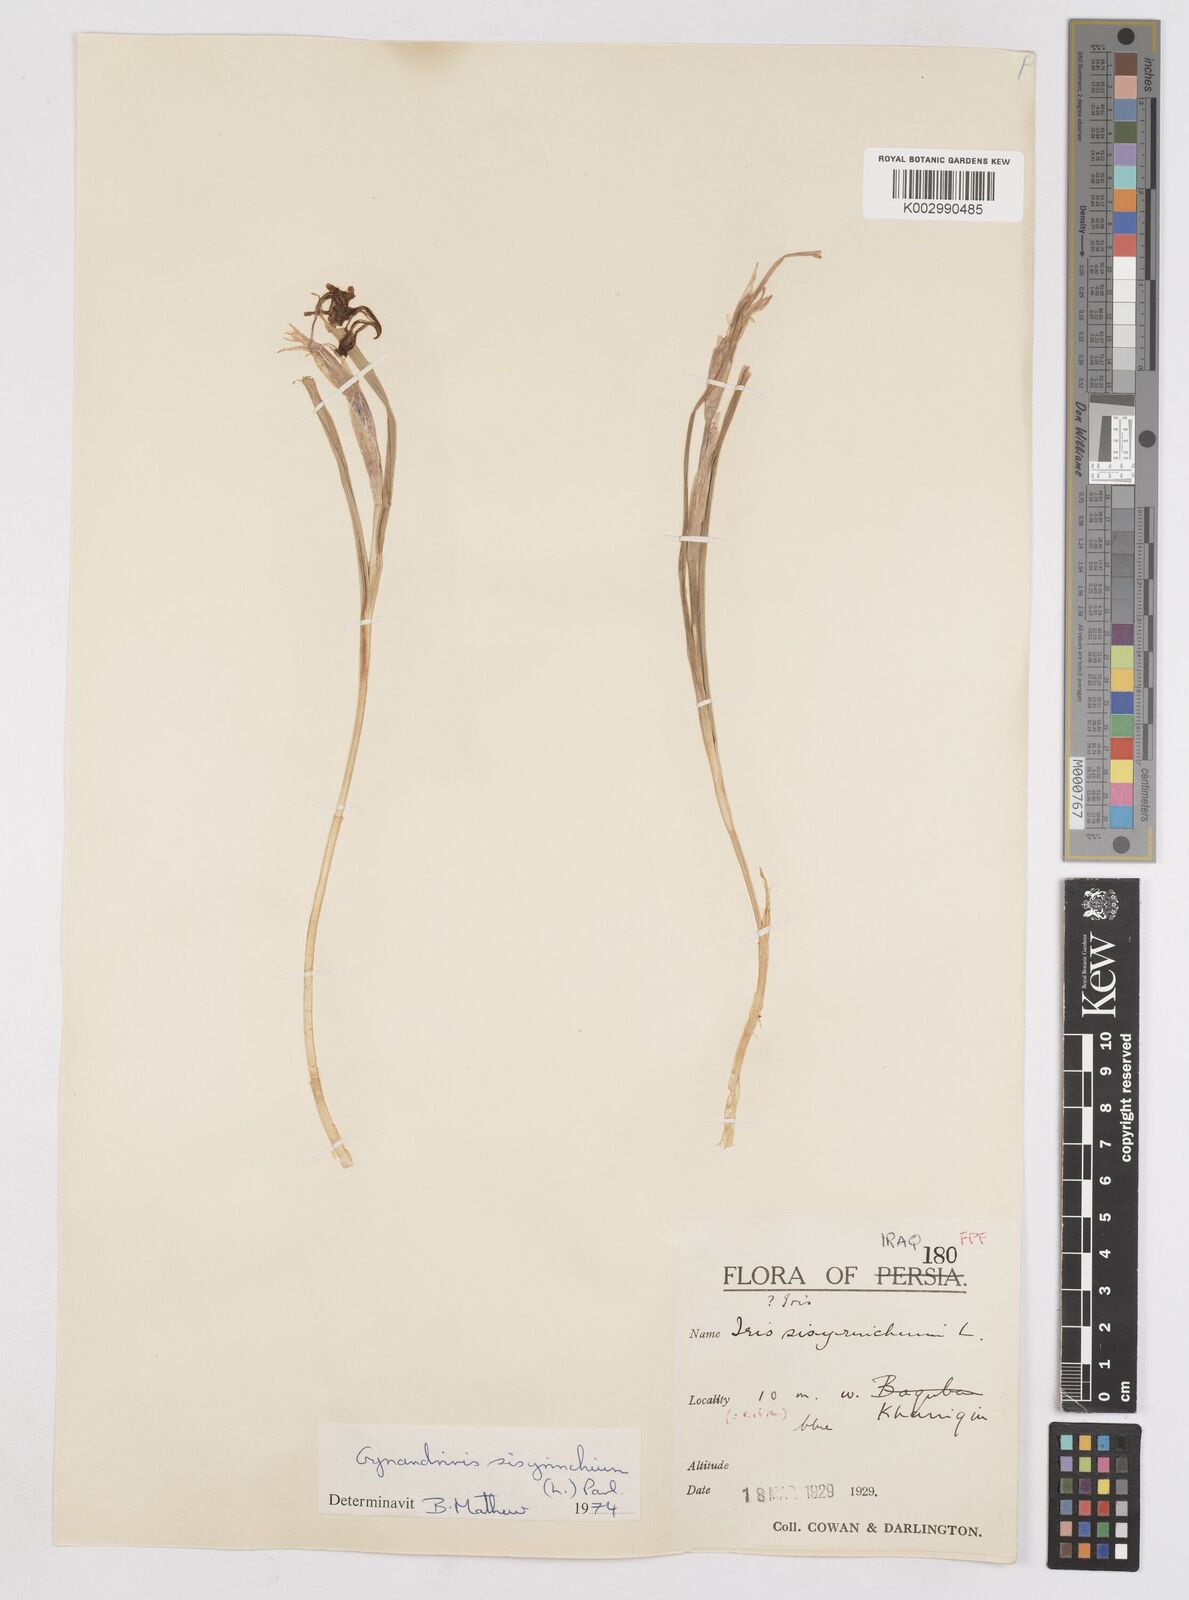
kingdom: Plantae
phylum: Tracheophyta
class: Liliopsida
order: Asparagales
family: Iridaceae
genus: Moraea
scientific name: Moraea sisyrinchium
